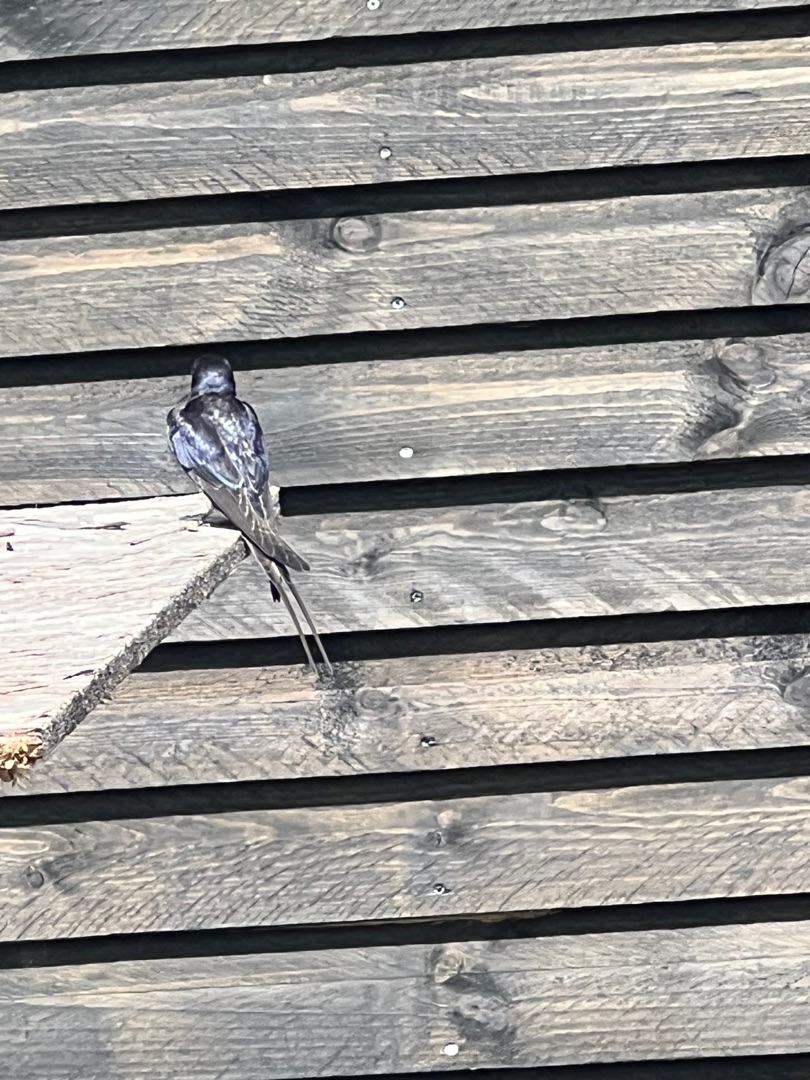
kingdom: Animalia
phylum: Chordata
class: Aves
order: Passeriformes
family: Hirundinidae
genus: Hirundo
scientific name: Hirundo rustica
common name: Landsvale
